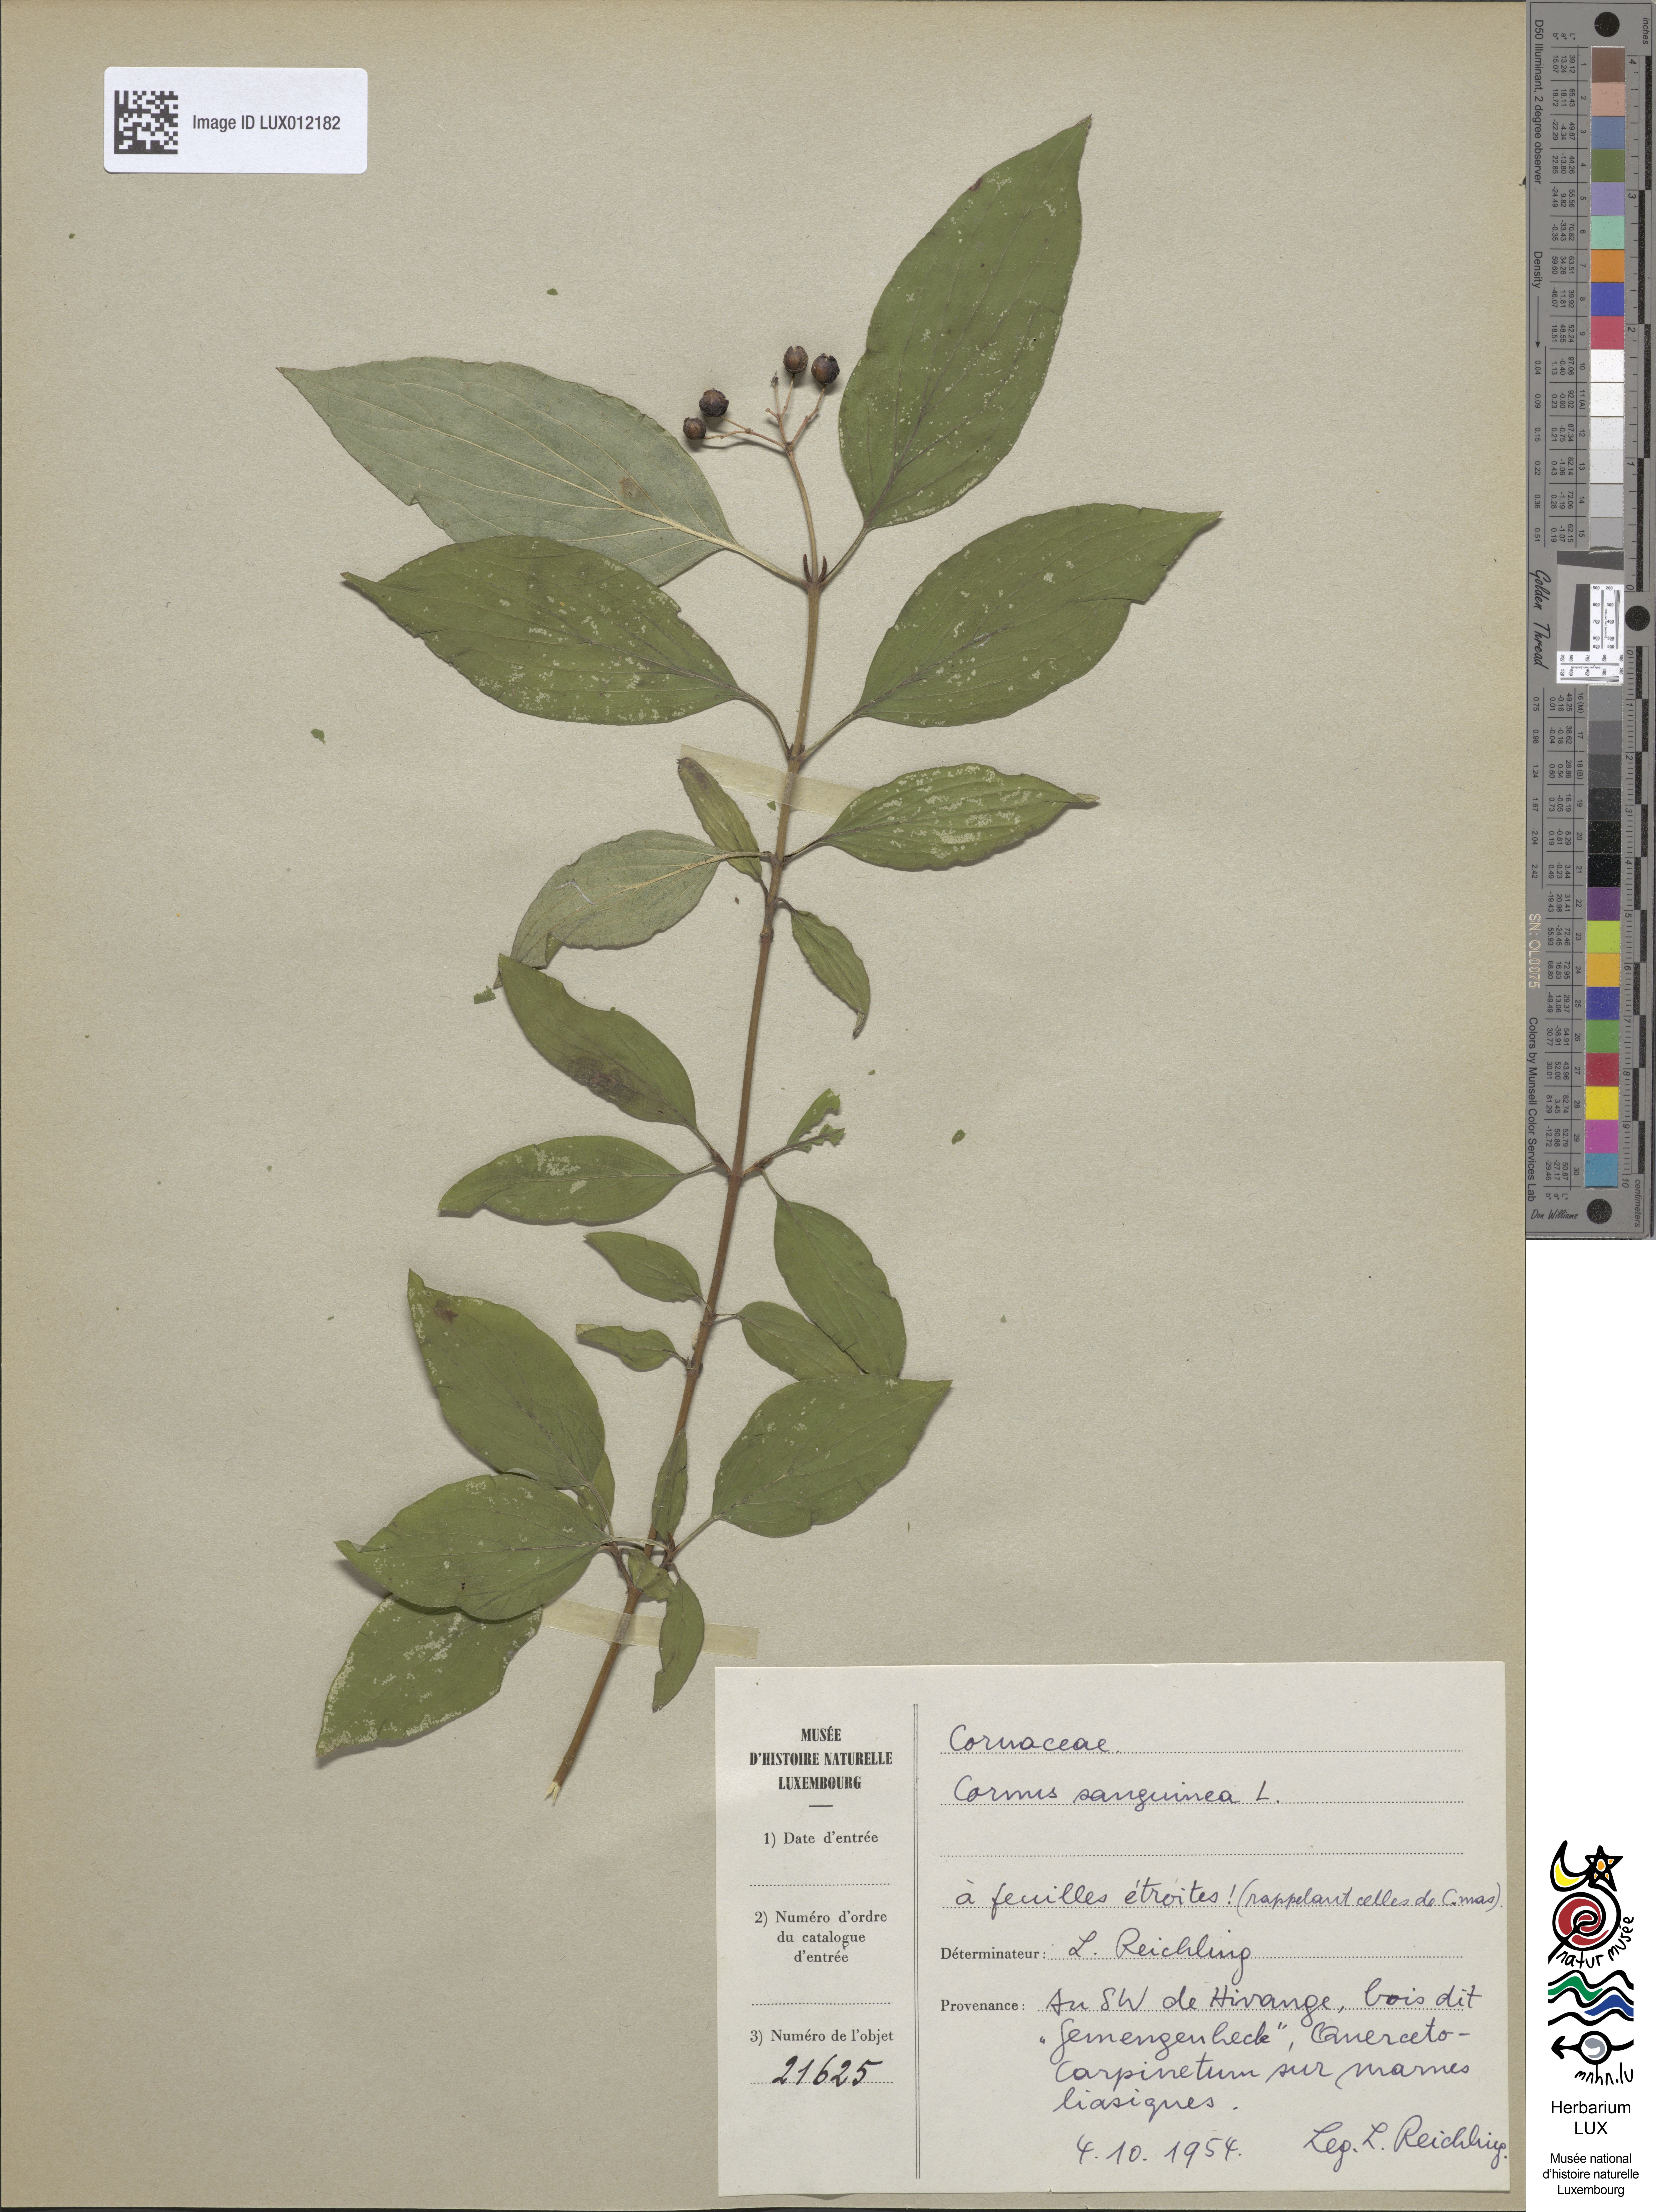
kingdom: Plantae
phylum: Tracheophyta
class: Magnoliopsida
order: Cornales
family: Cornaceae
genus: Cornus
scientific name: Cornus sanguinea
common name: Dogwood
